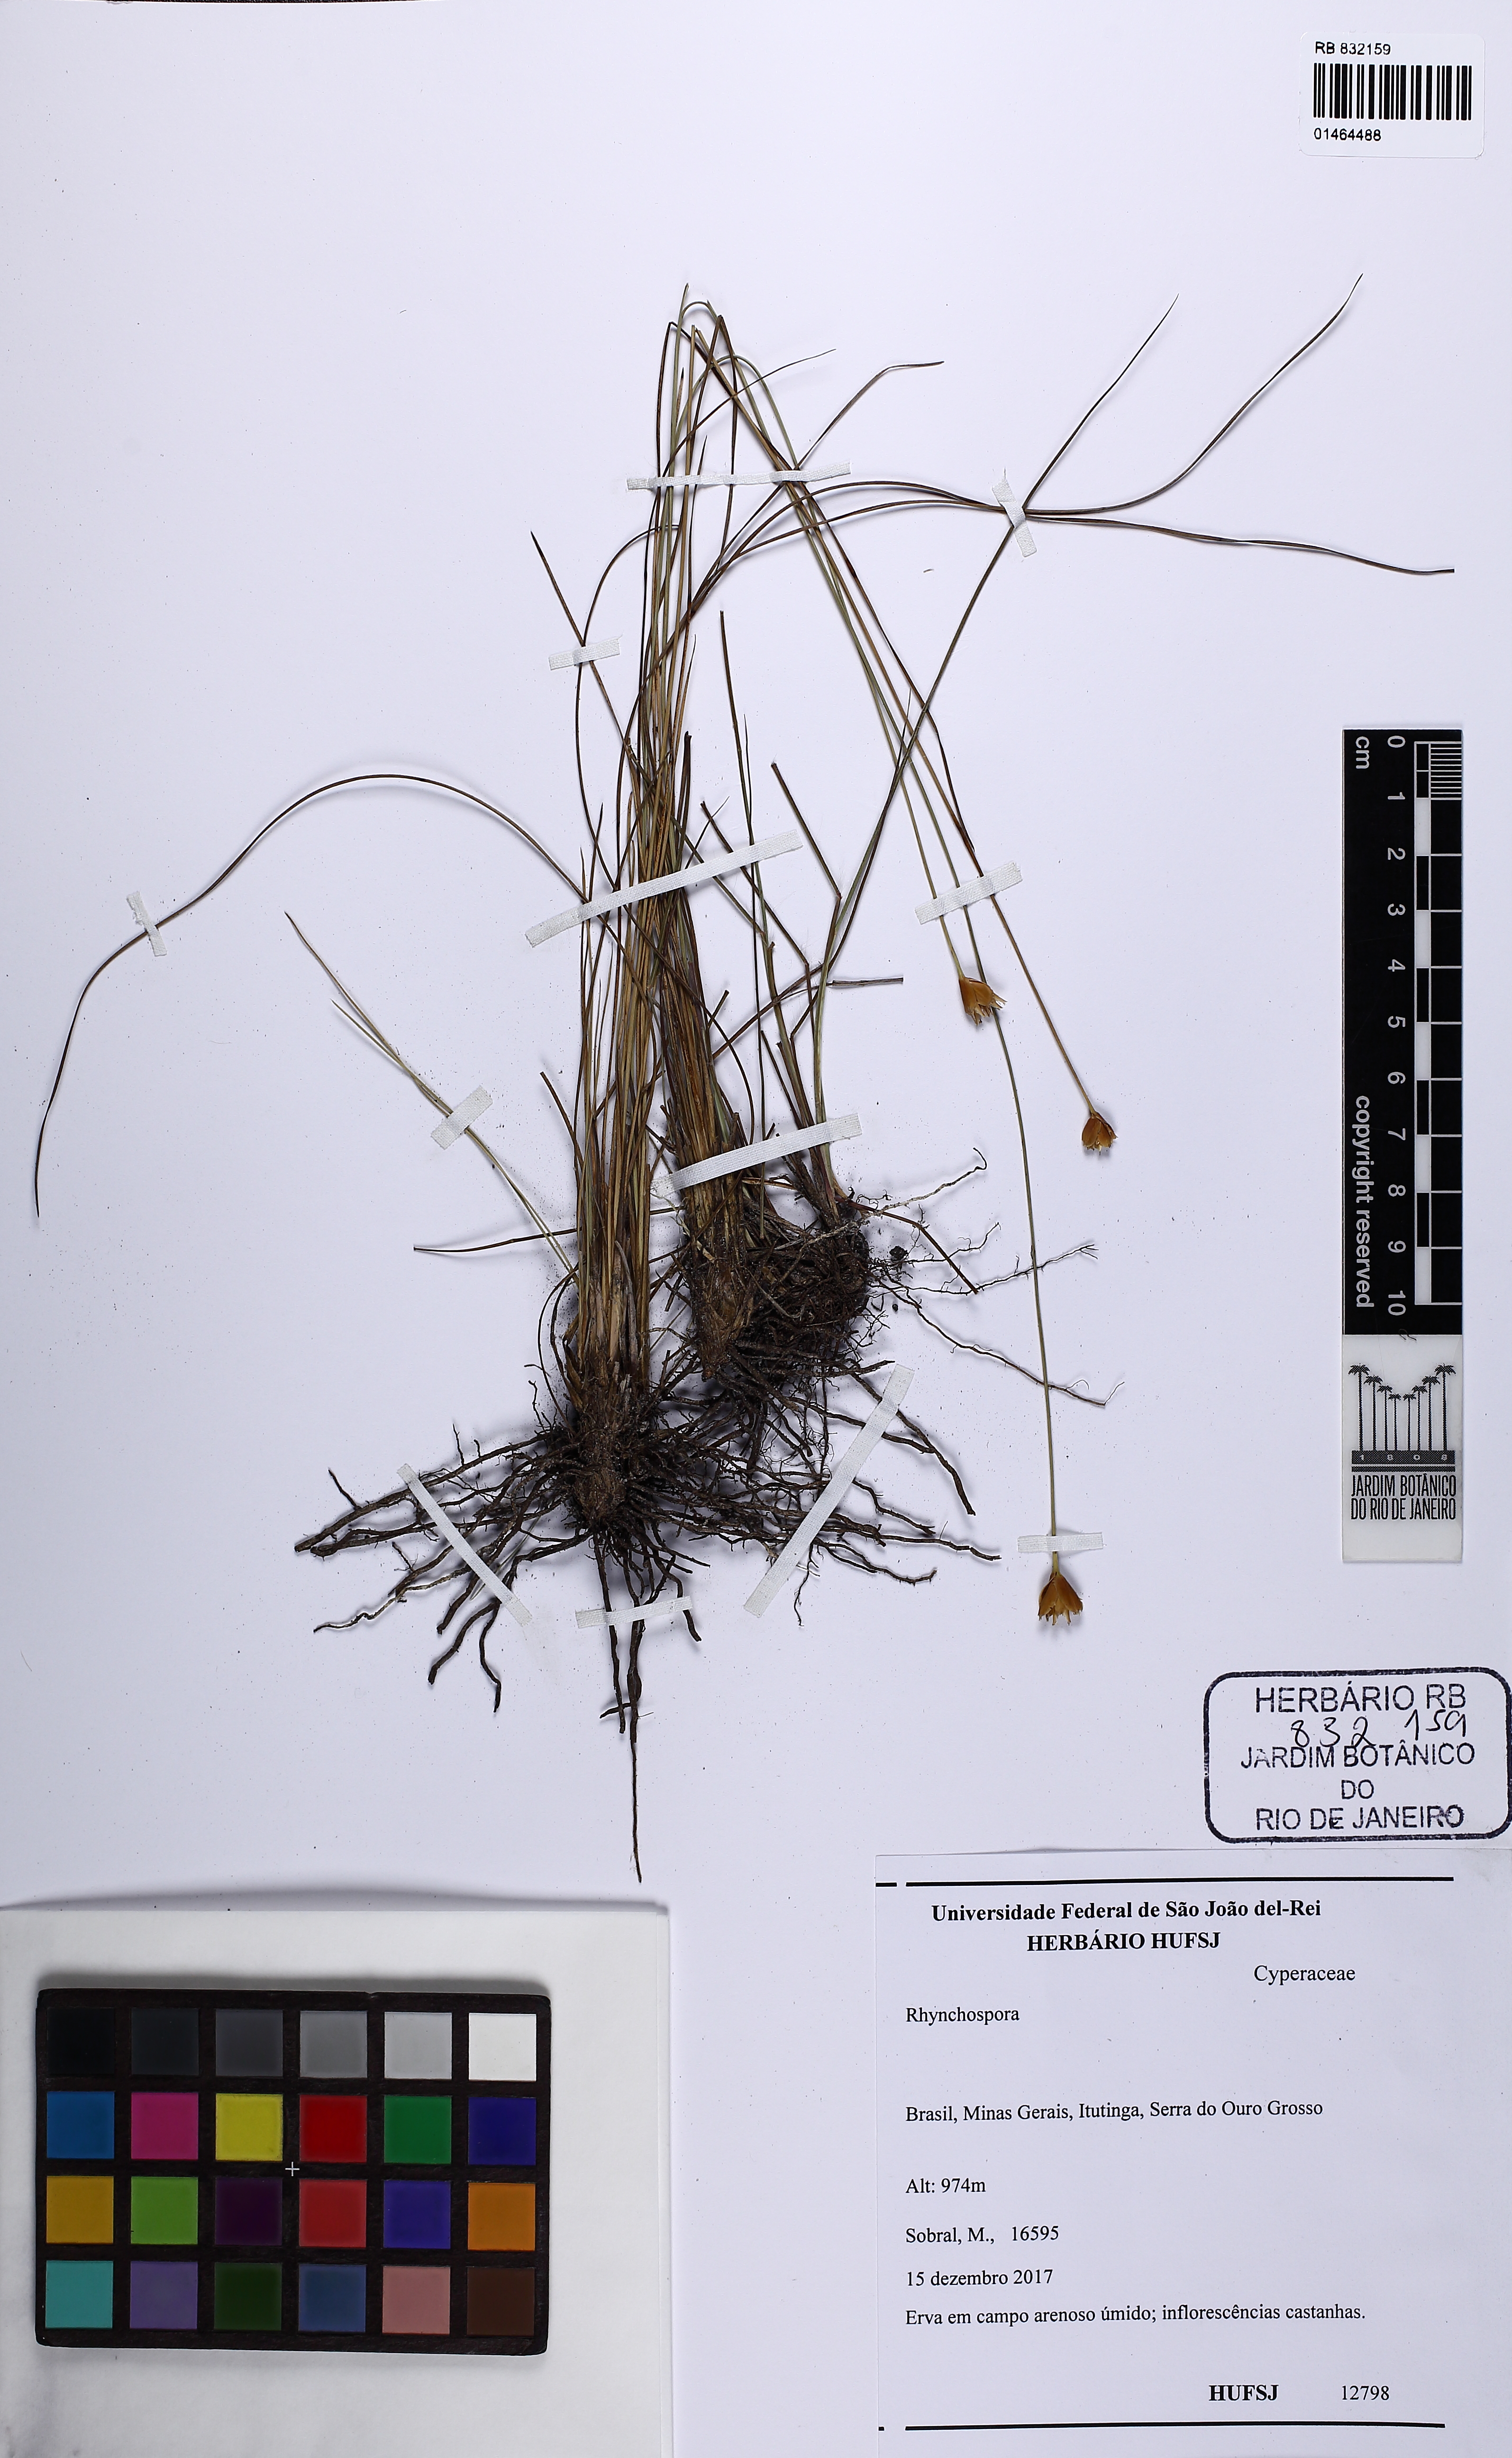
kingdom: Plantae
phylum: Tracheophyta
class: Liliopsida
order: Poales
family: Cyperaceae
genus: Rhynchospora
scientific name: Rhynchospora
